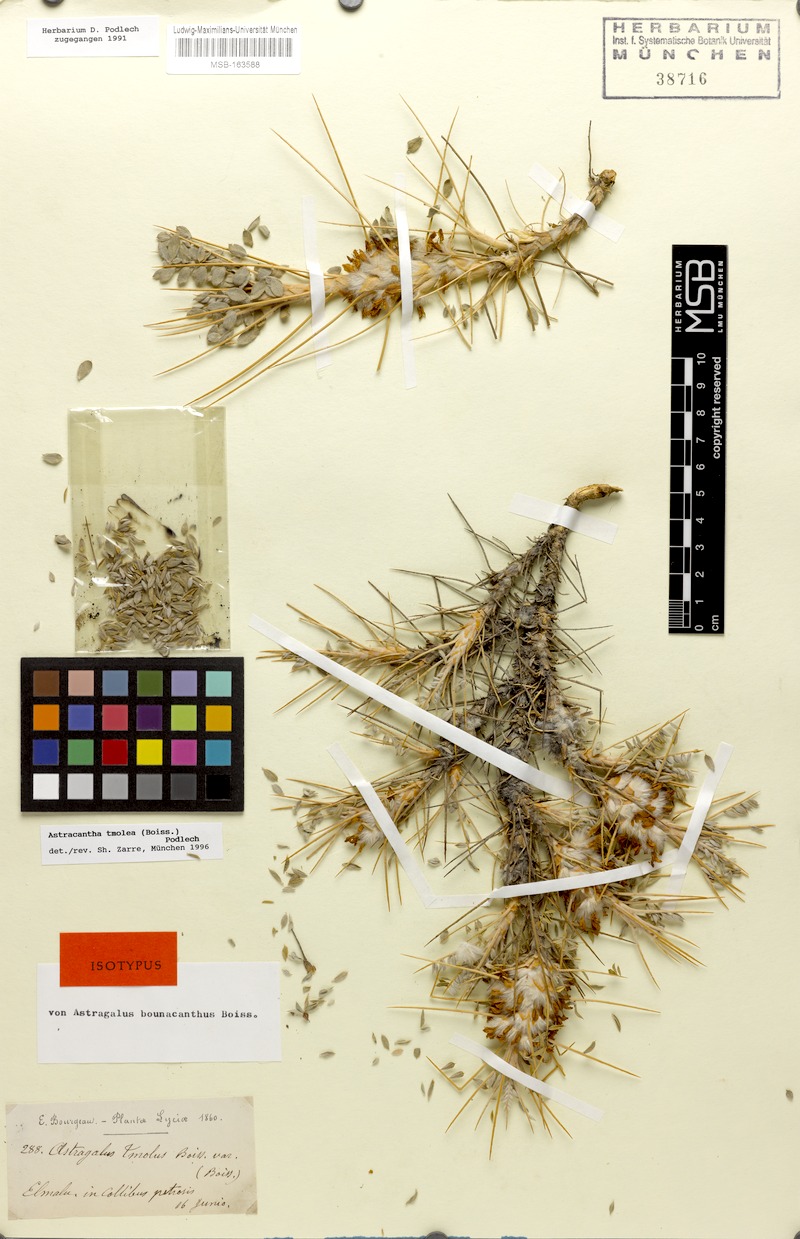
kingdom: Plantae
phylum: Tracheophyta
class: Magnoliopsida
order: Fabales
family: Fabaceae
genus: Astragalus
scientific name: Astragalus tmoleus
